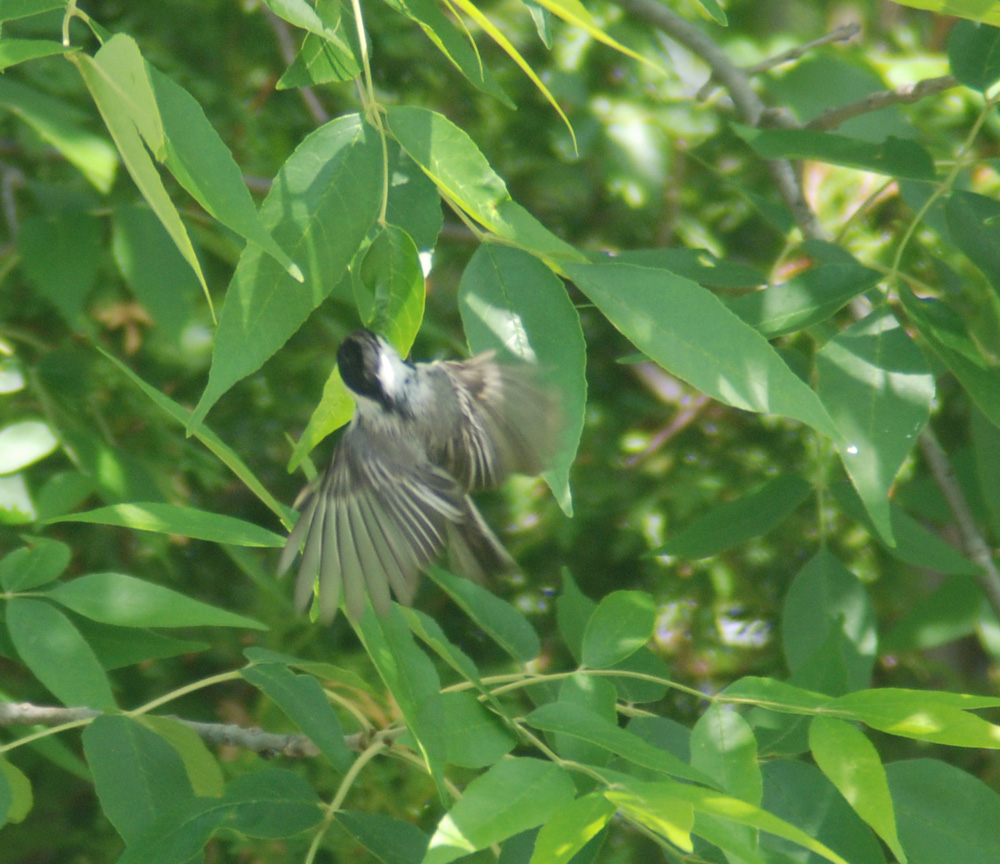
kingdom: Animalia
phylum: Chordata
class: Aves
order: Passeriformes
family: Paridae
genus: Poecile
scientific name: Poecile atricapillus
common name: Black-capped chickadee
